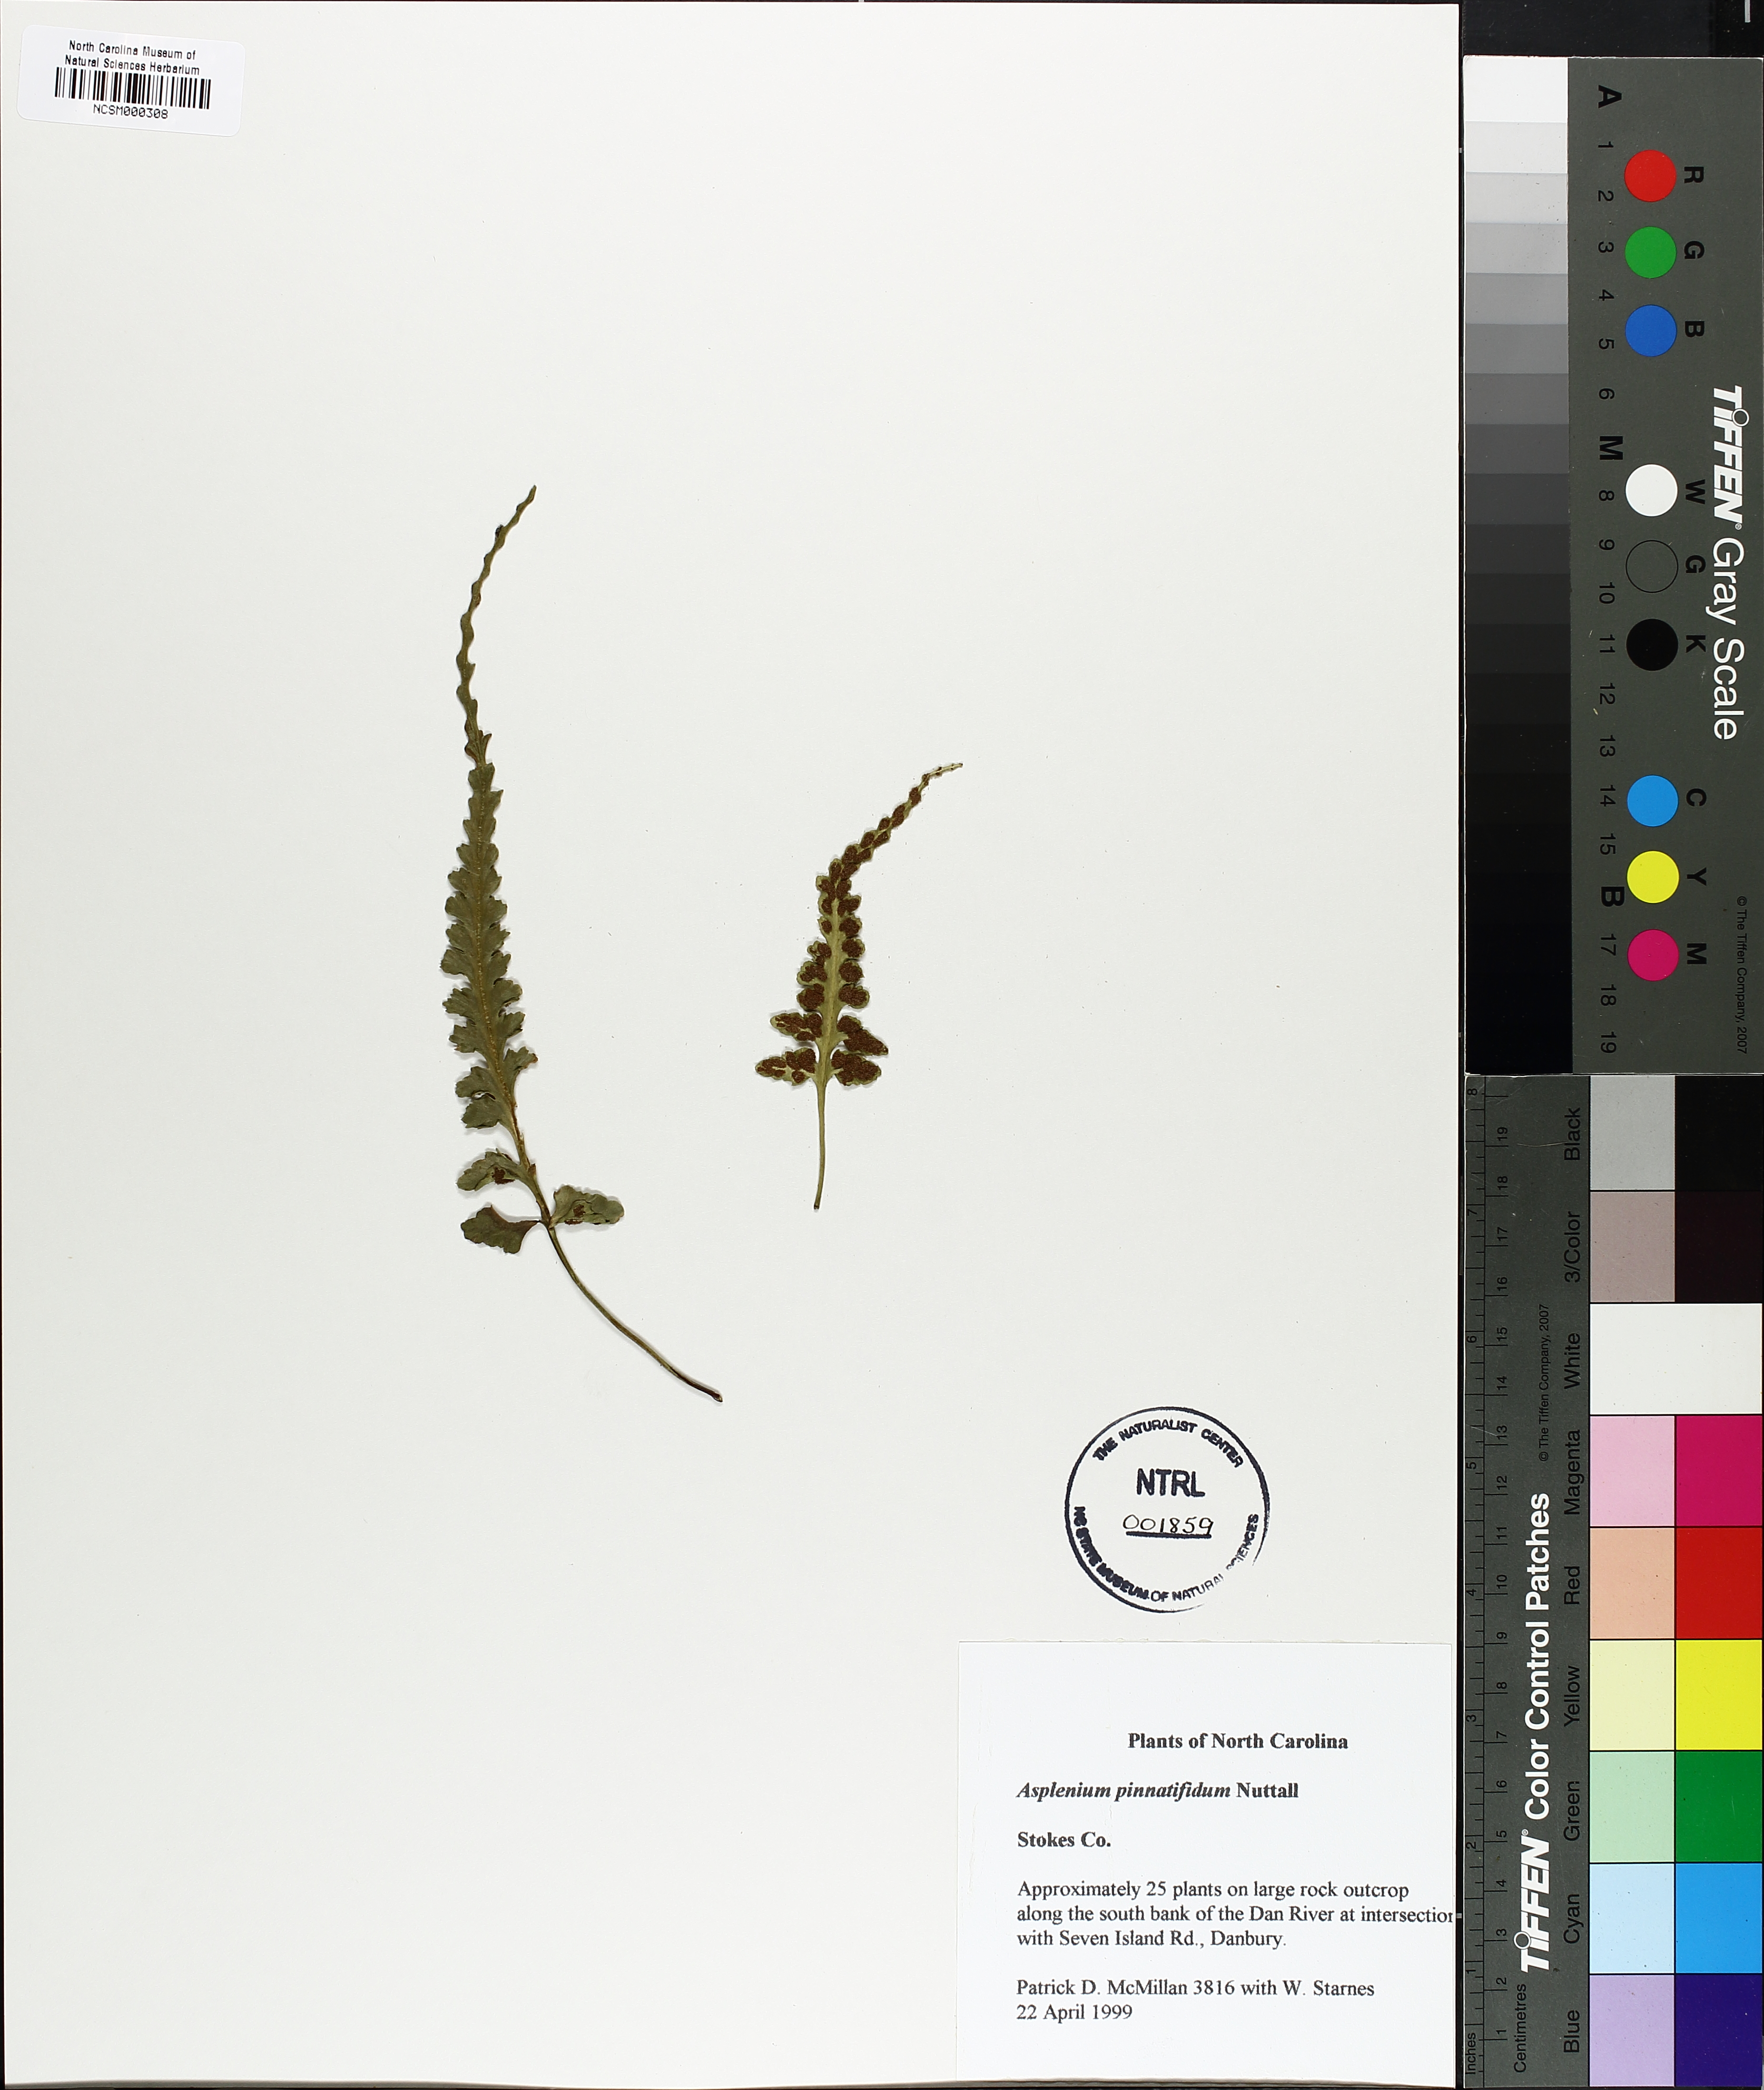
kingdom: Plantae
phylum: Tracheophyta
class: Polypodiopsida
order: Polypodiales
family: Aspleniaceae
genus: Asplenium
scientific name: Asplenium pinnatifidum
